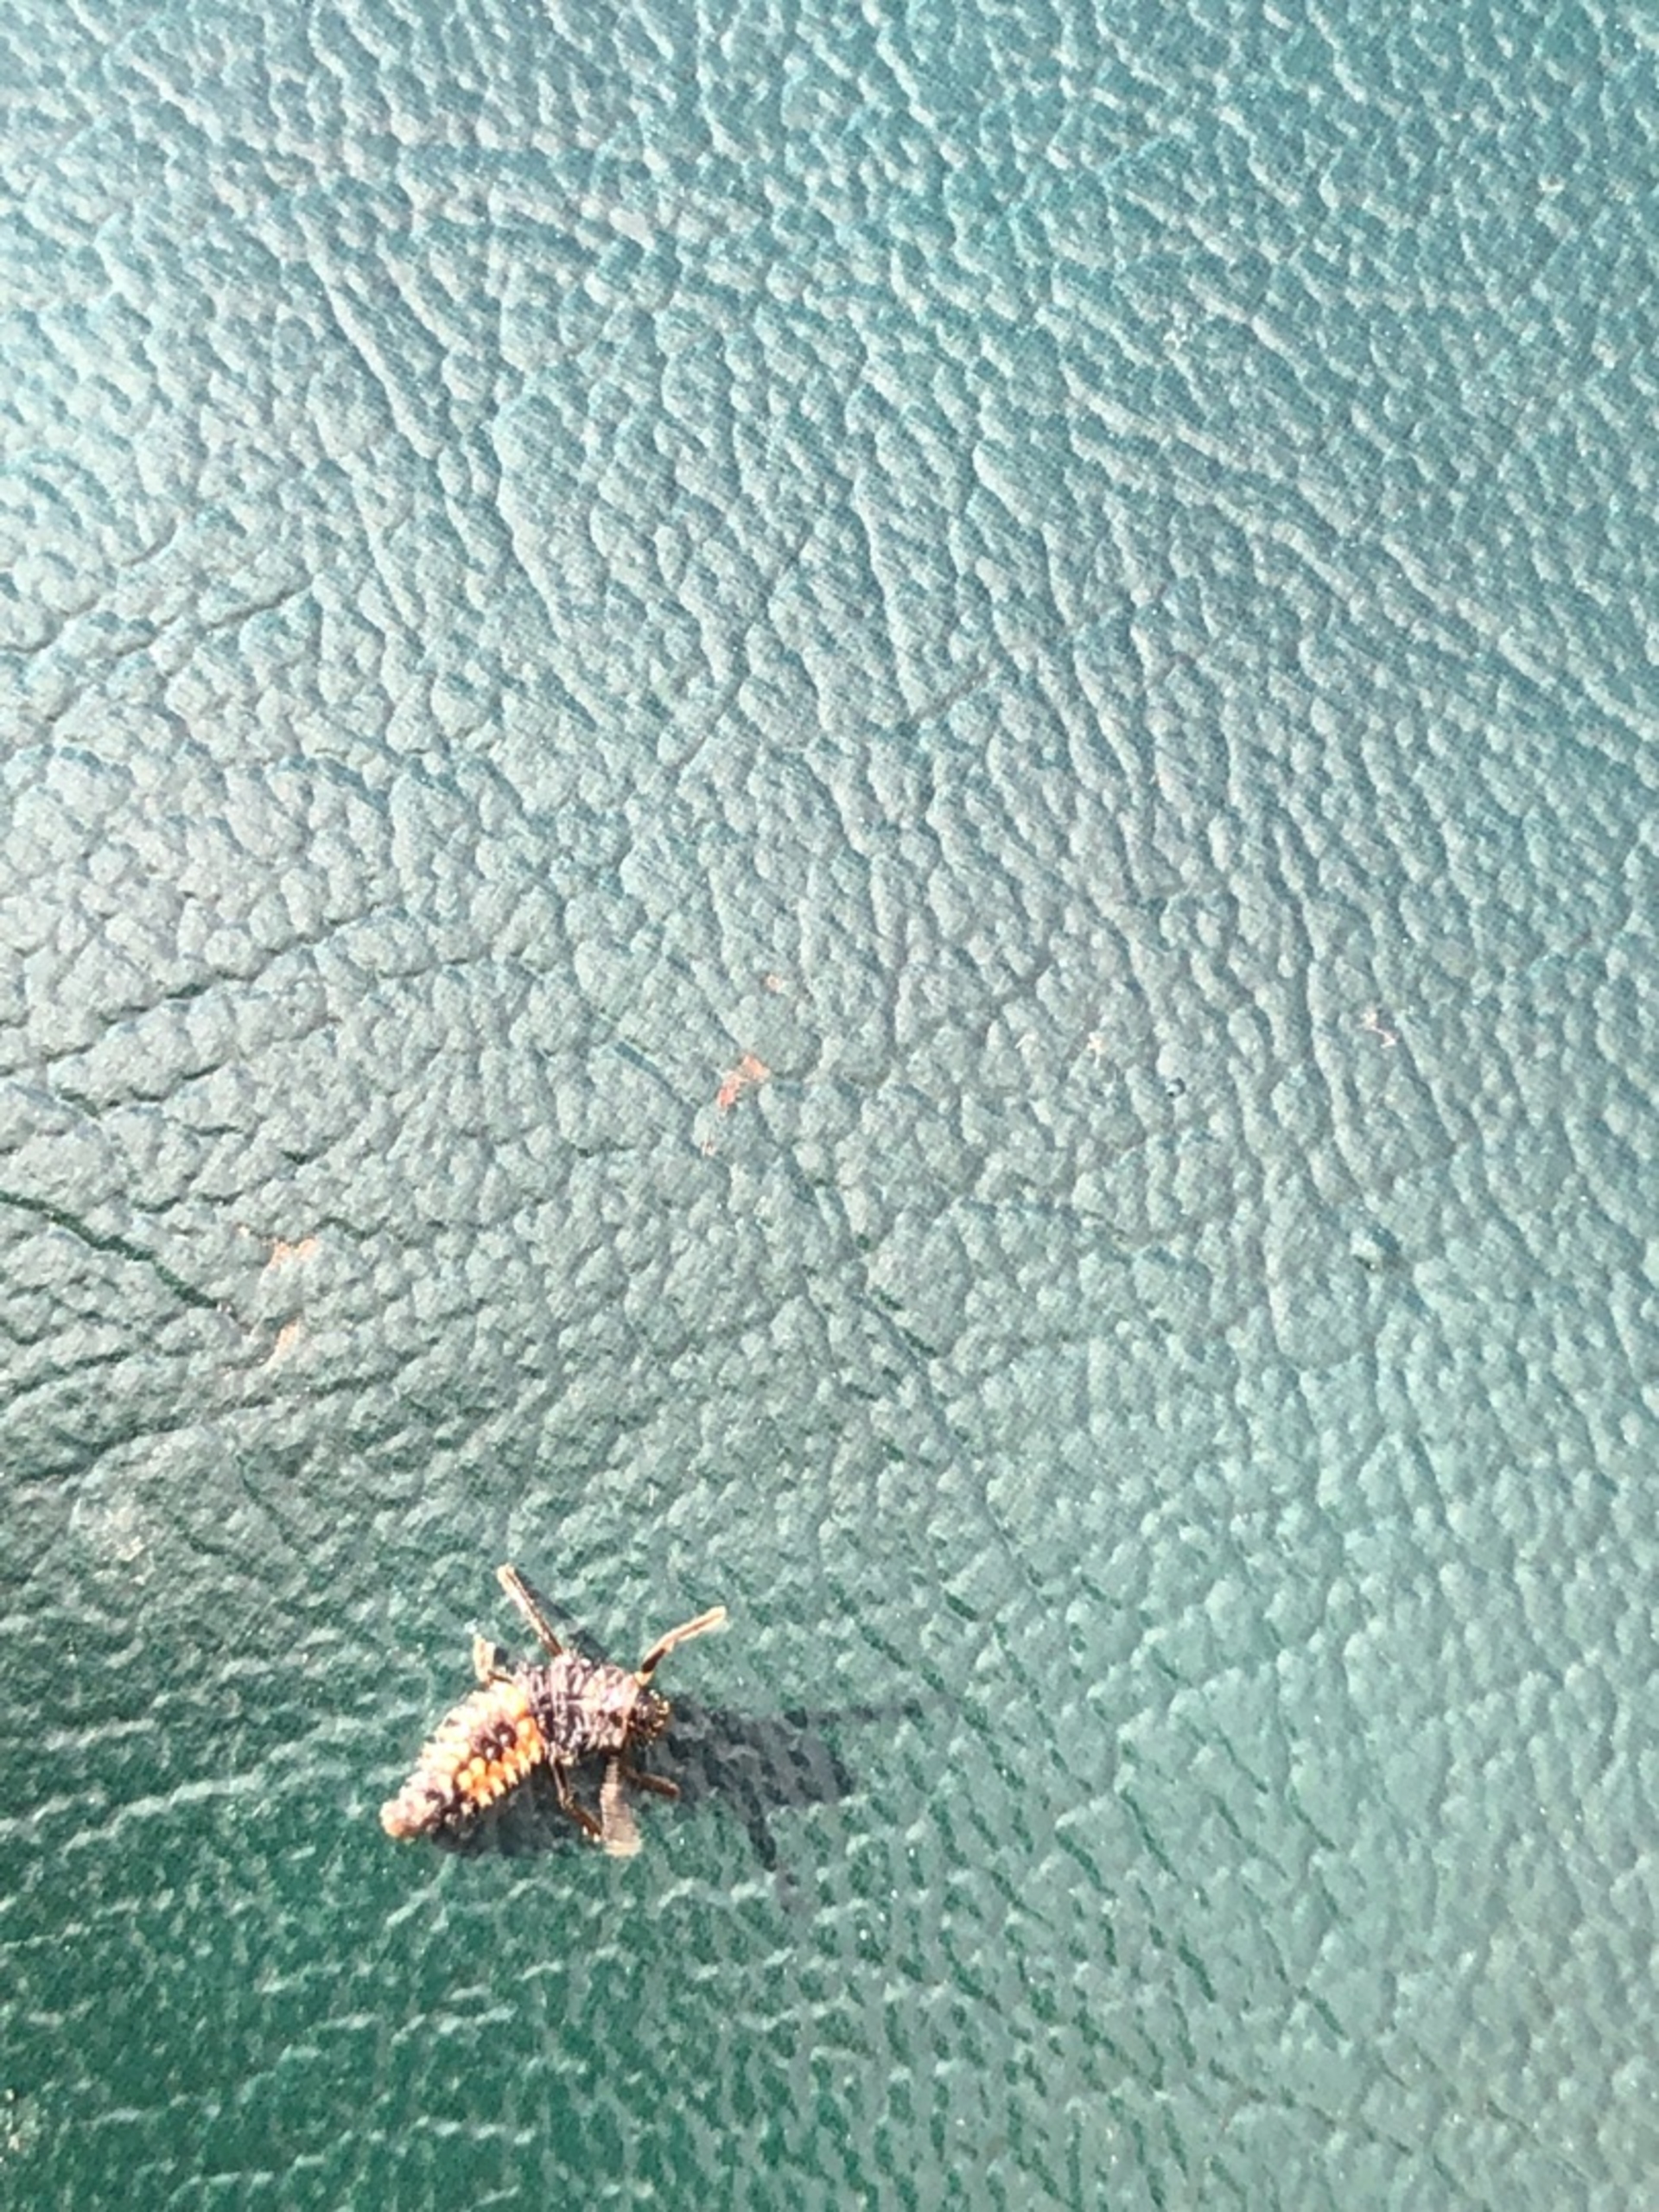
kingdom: Animalia
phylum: Arthropoda
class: Insecta
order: Coleoptera
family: Coccinellidae
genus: Harmonia
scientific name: Harmonia axyridis
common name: Harlekinmariehøne
